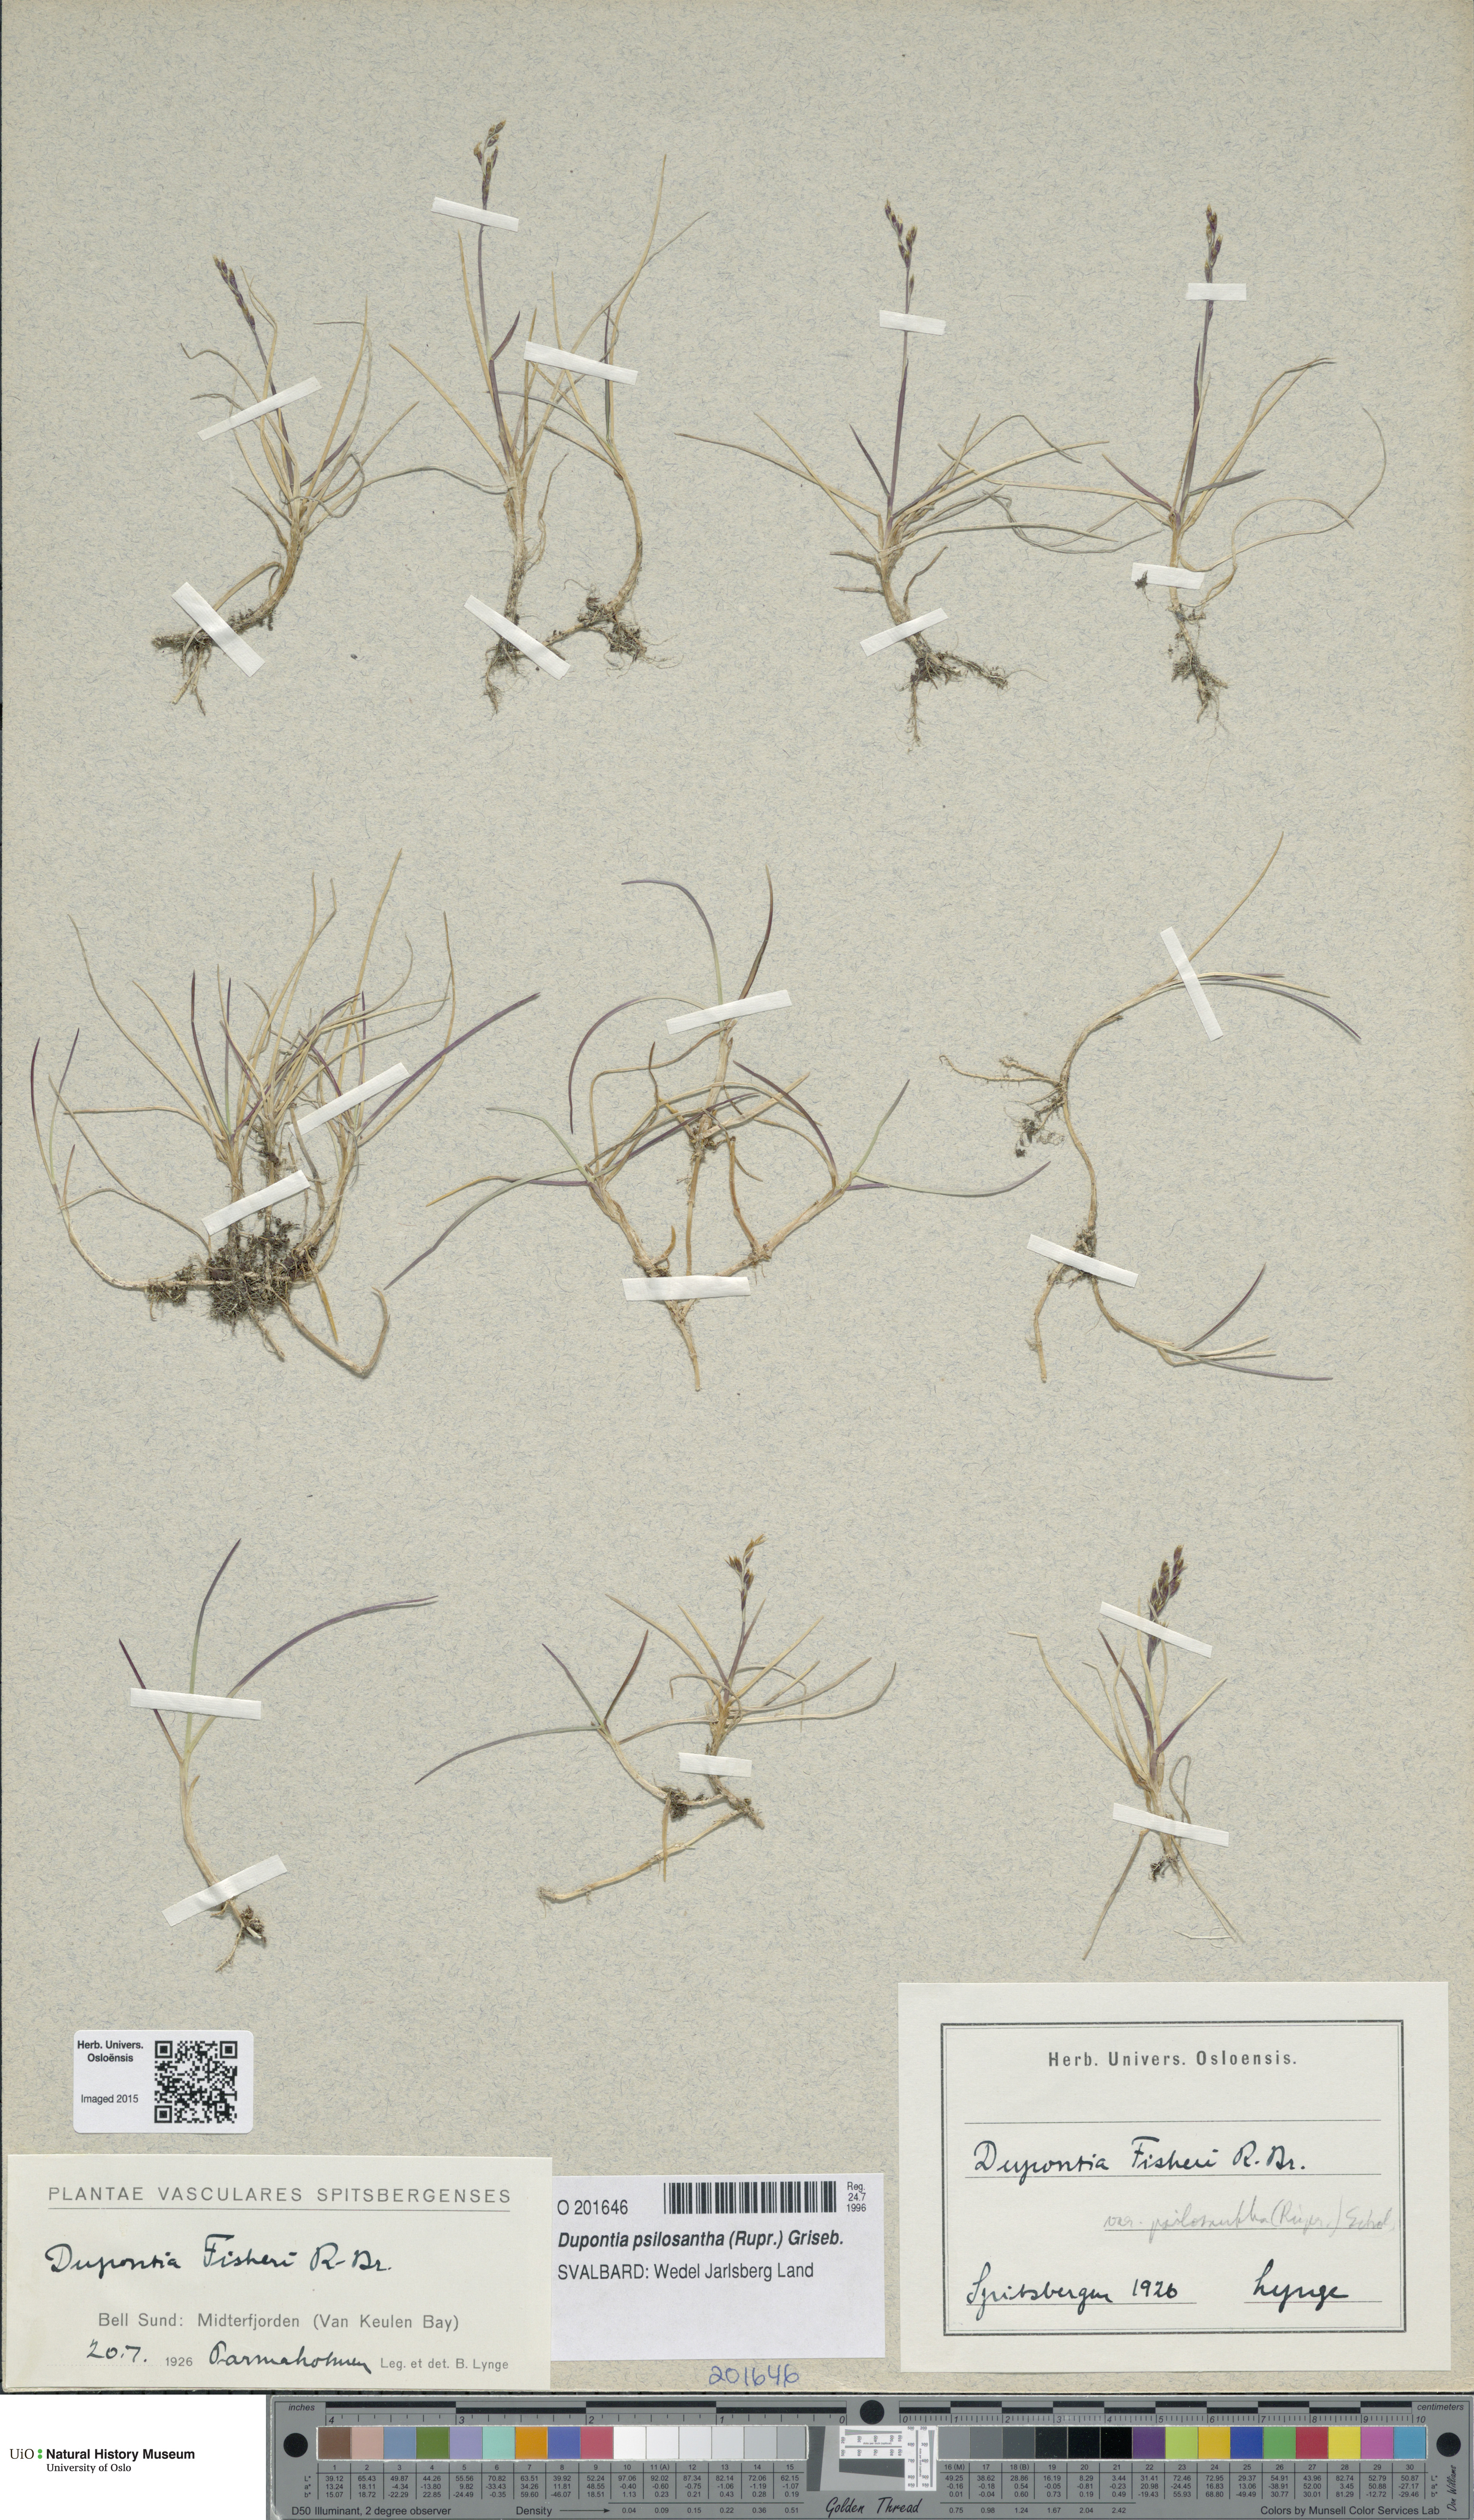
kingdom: Plantae
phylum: Tracheophyta
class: Liliopsida
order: Poales
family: Poaceae
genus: Dupontia
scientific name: Dupontia fisheri
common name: Tundra grass
